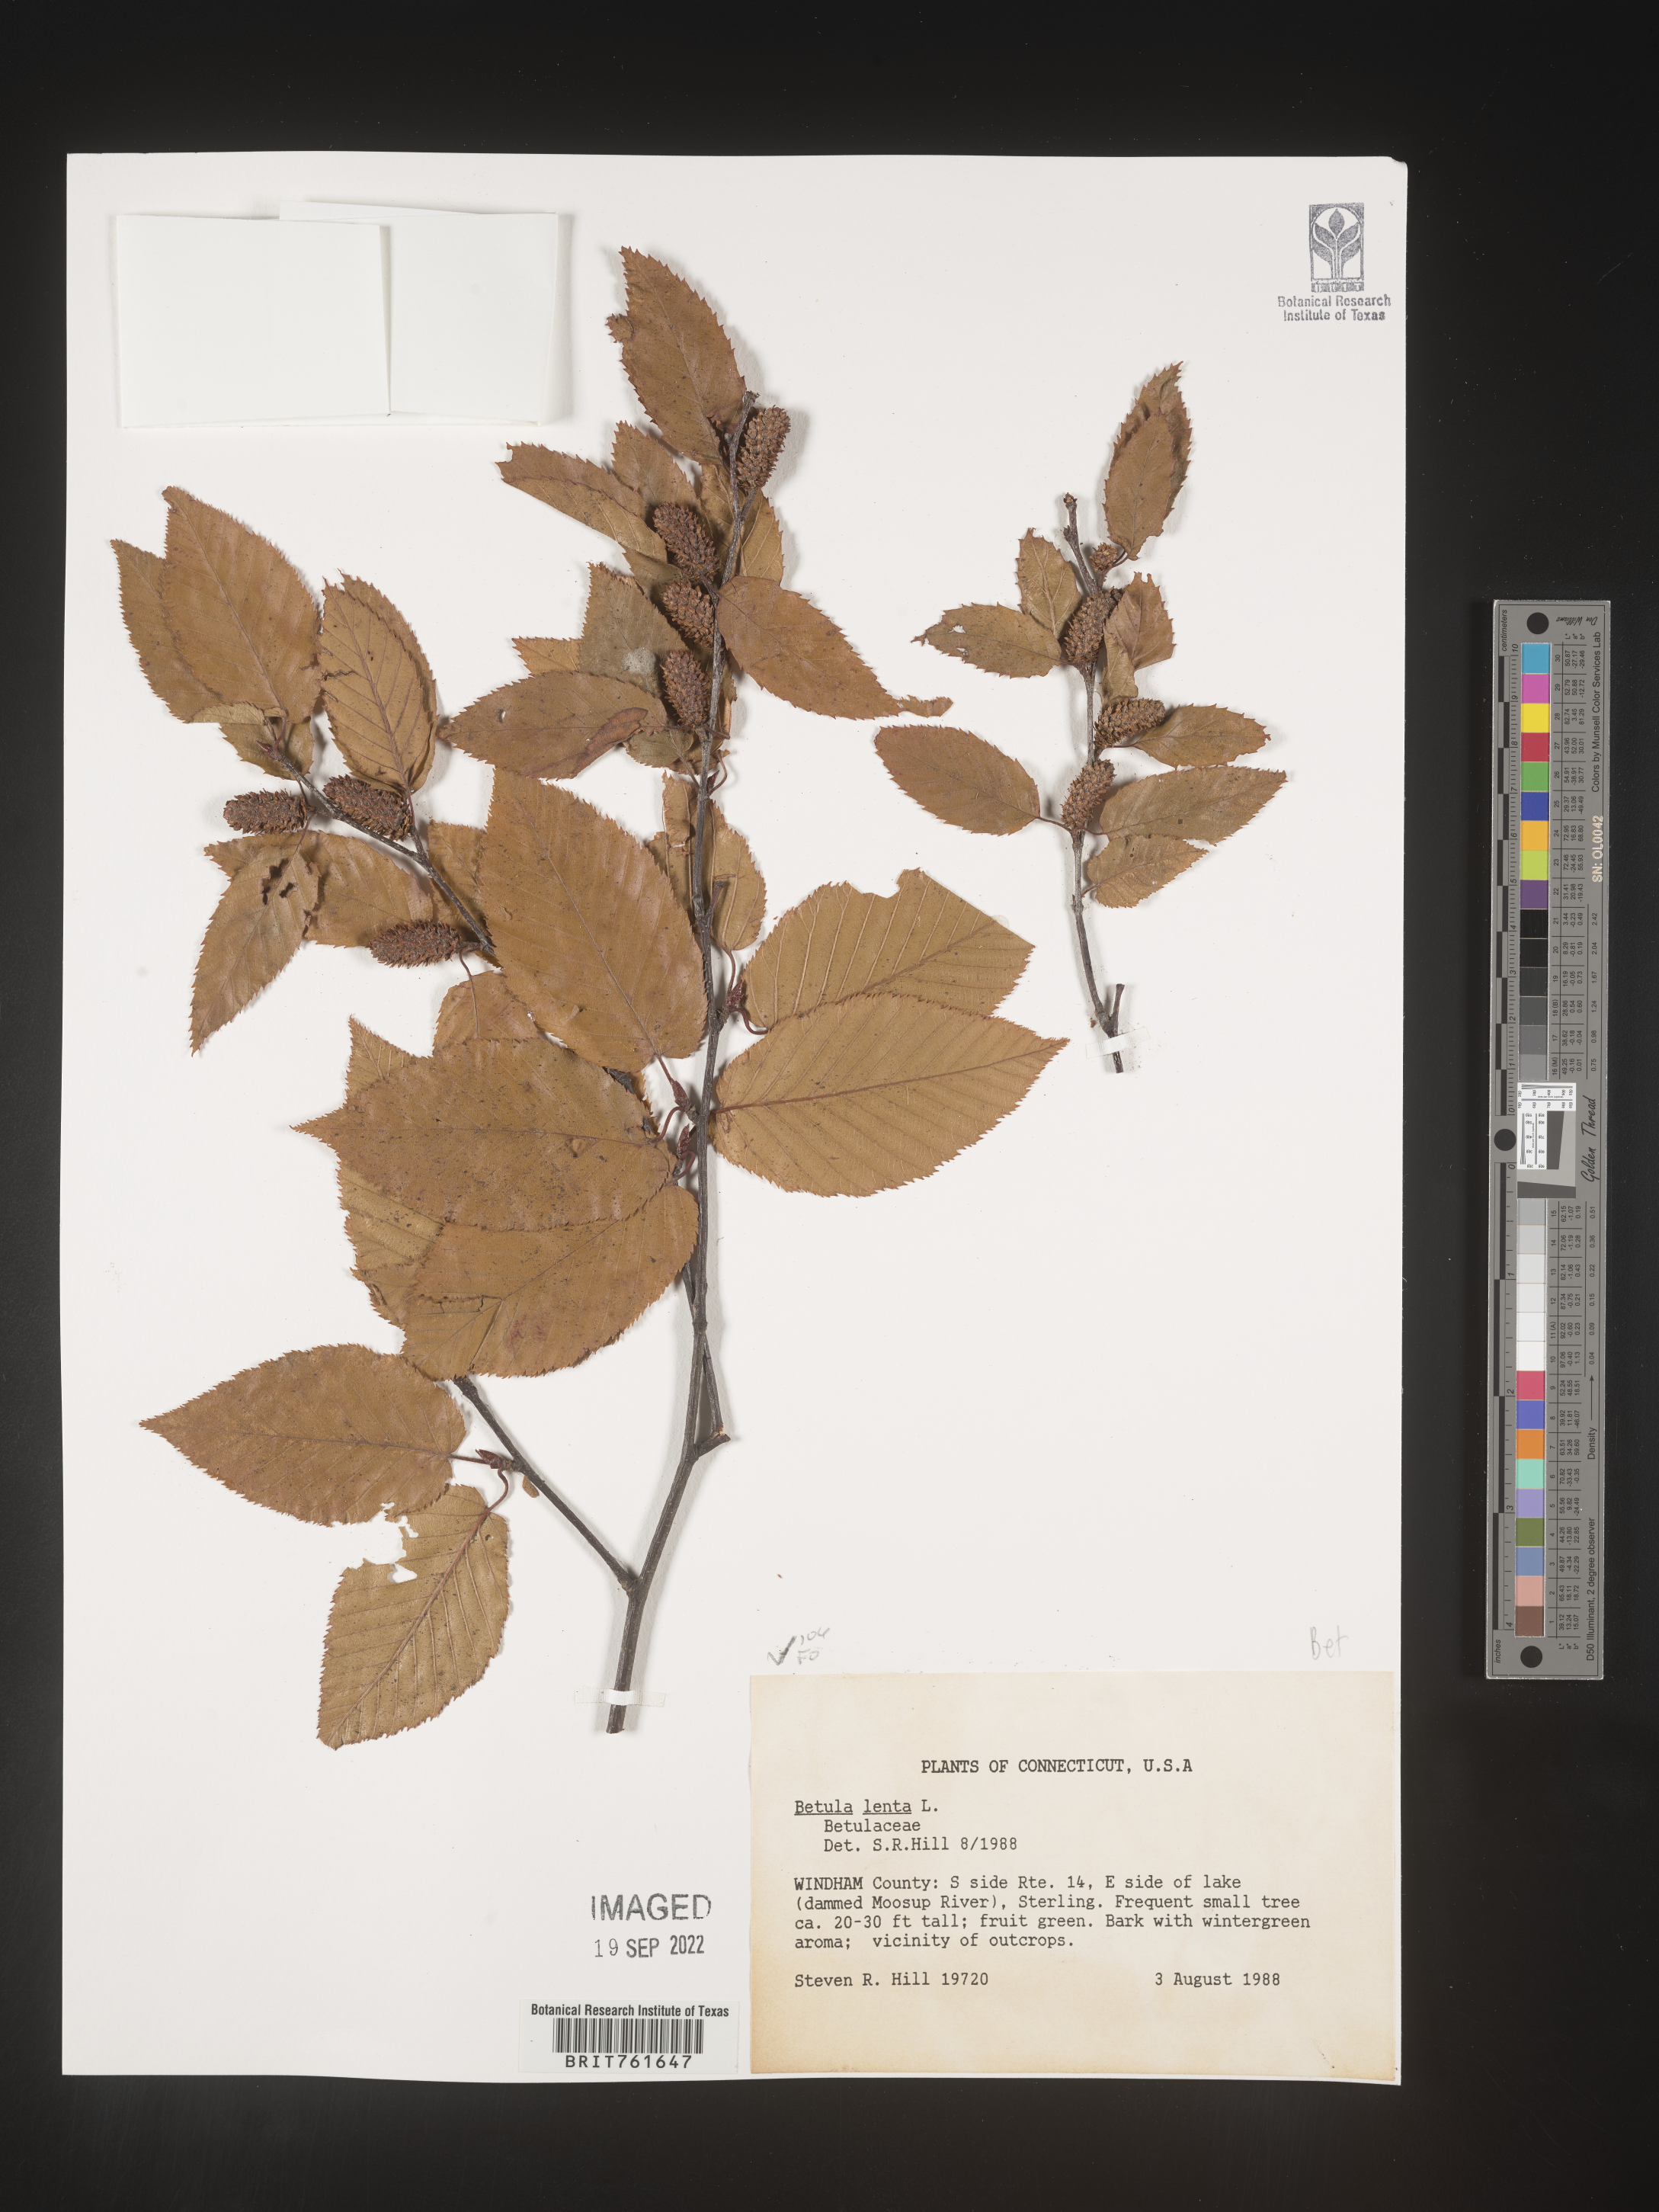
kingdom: Plantae
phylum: Tracheophyta
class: Magnoliopsida
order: Fagales
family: Betulaceae
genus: Betula
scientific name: Betula lenta
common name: Black birch
